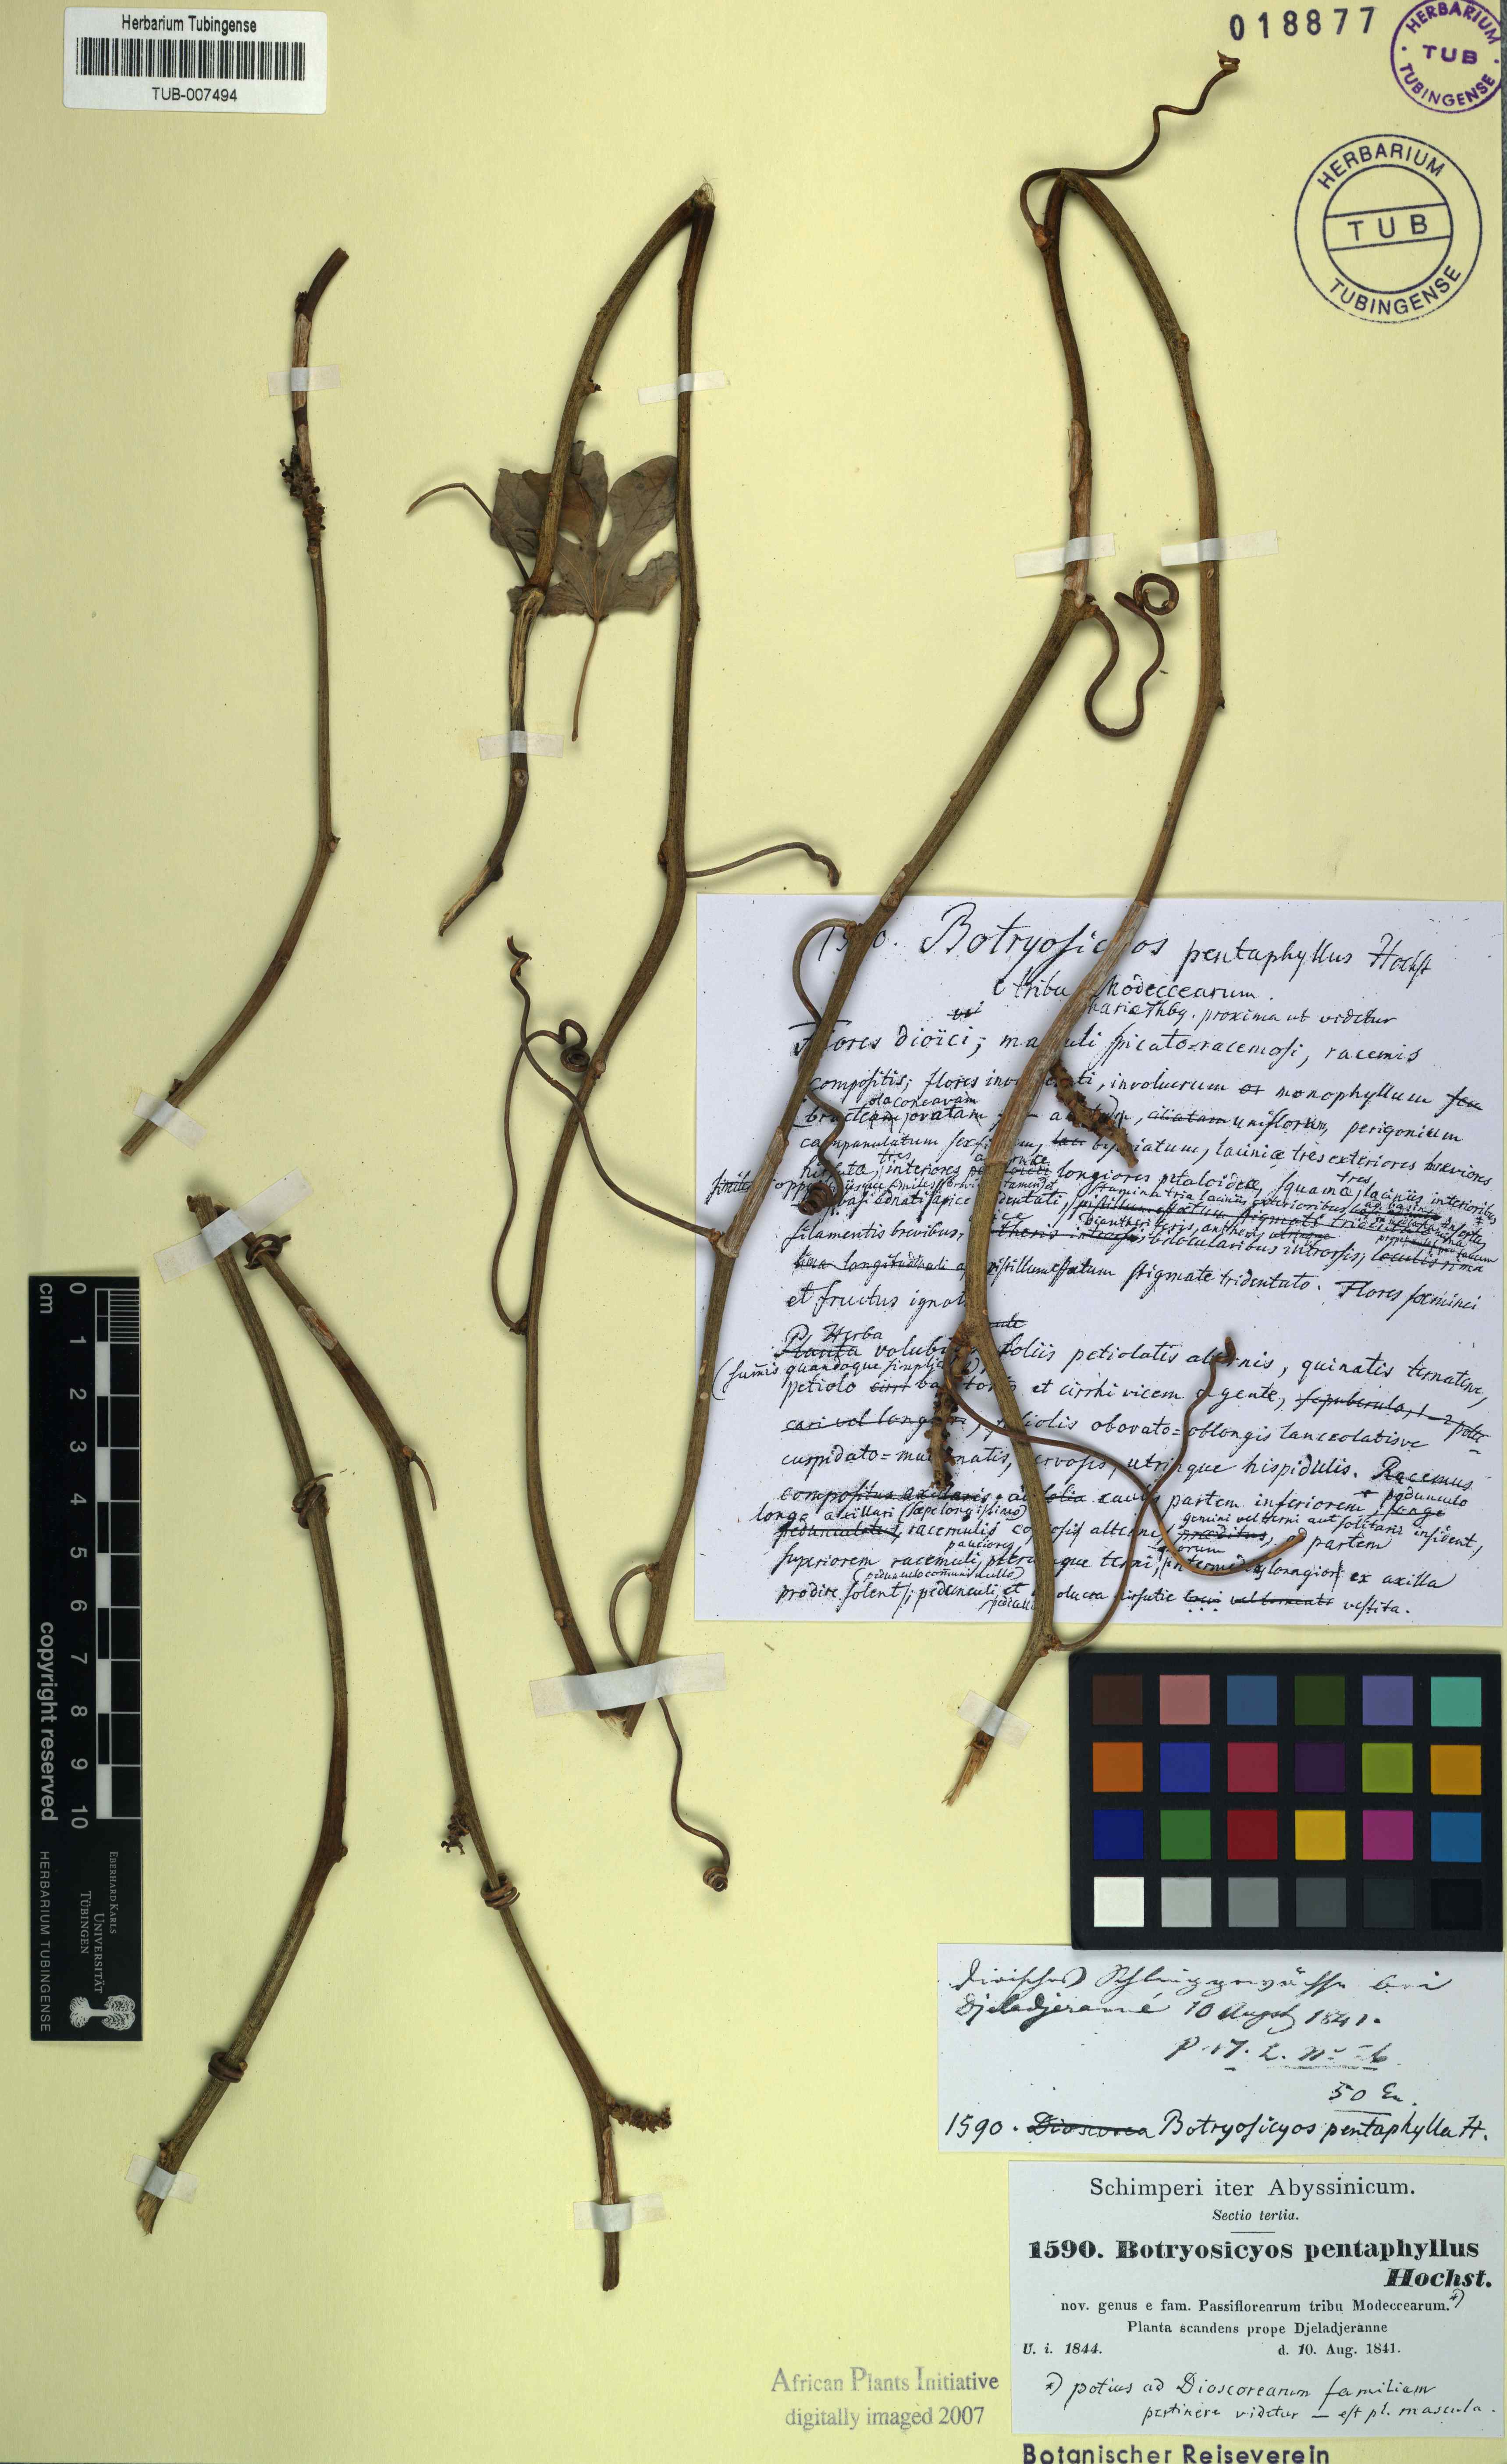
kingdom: Plantae
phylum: Tracheophyta
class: Liliopsida
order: Dioscoreales
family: Dioscoreaceae
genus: Dioscorea
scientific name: Dioscorea pentaphylla
